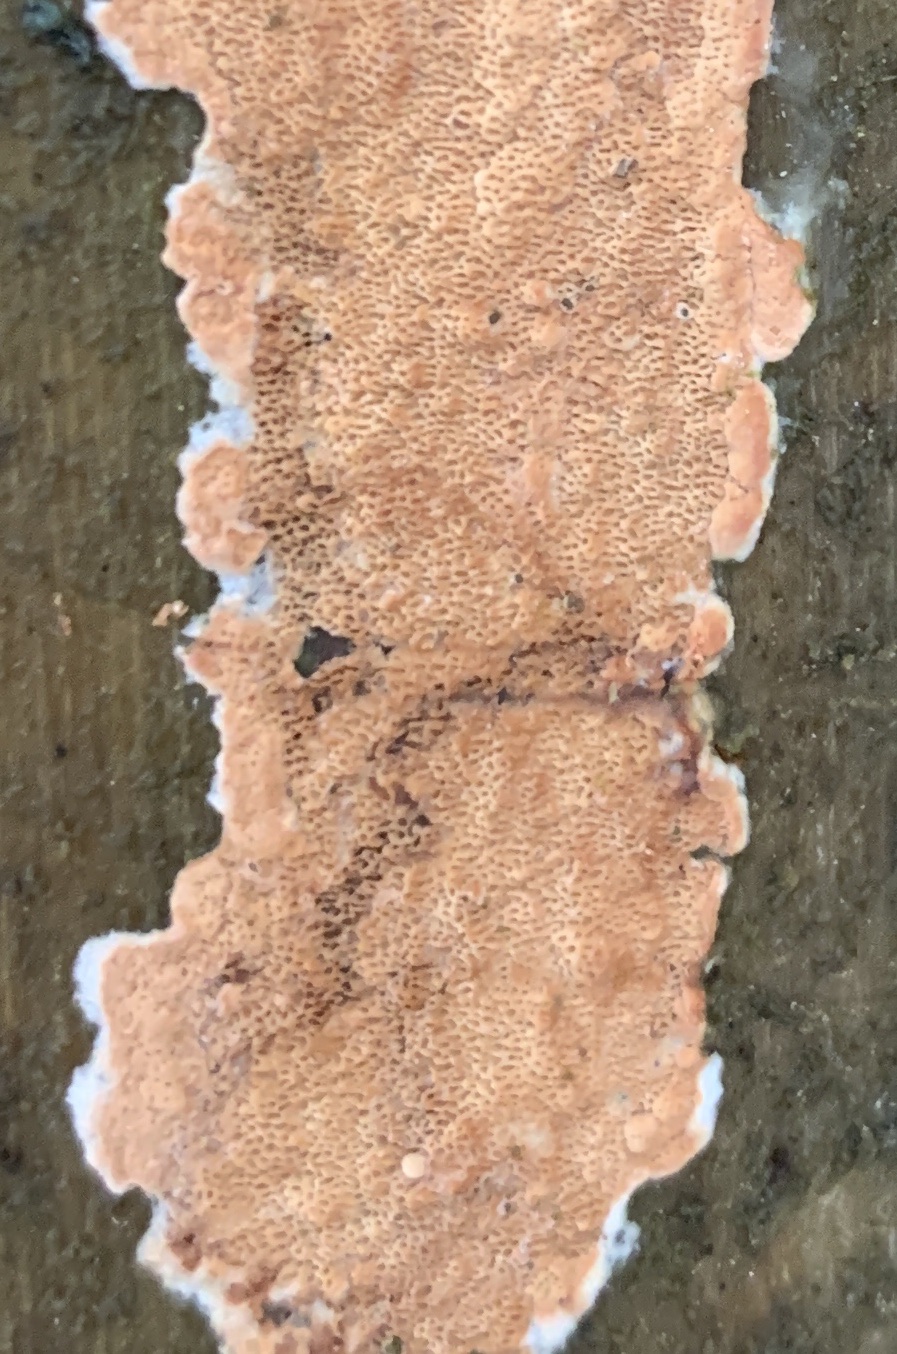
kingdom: Fungi
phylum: Basidiomycota
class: Agaricomycetes
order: Polyporales
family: Irpicaceae
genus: Meruliopsis
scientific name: Meruliopsis taxicola
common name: purpurbrun foldporesvamp
